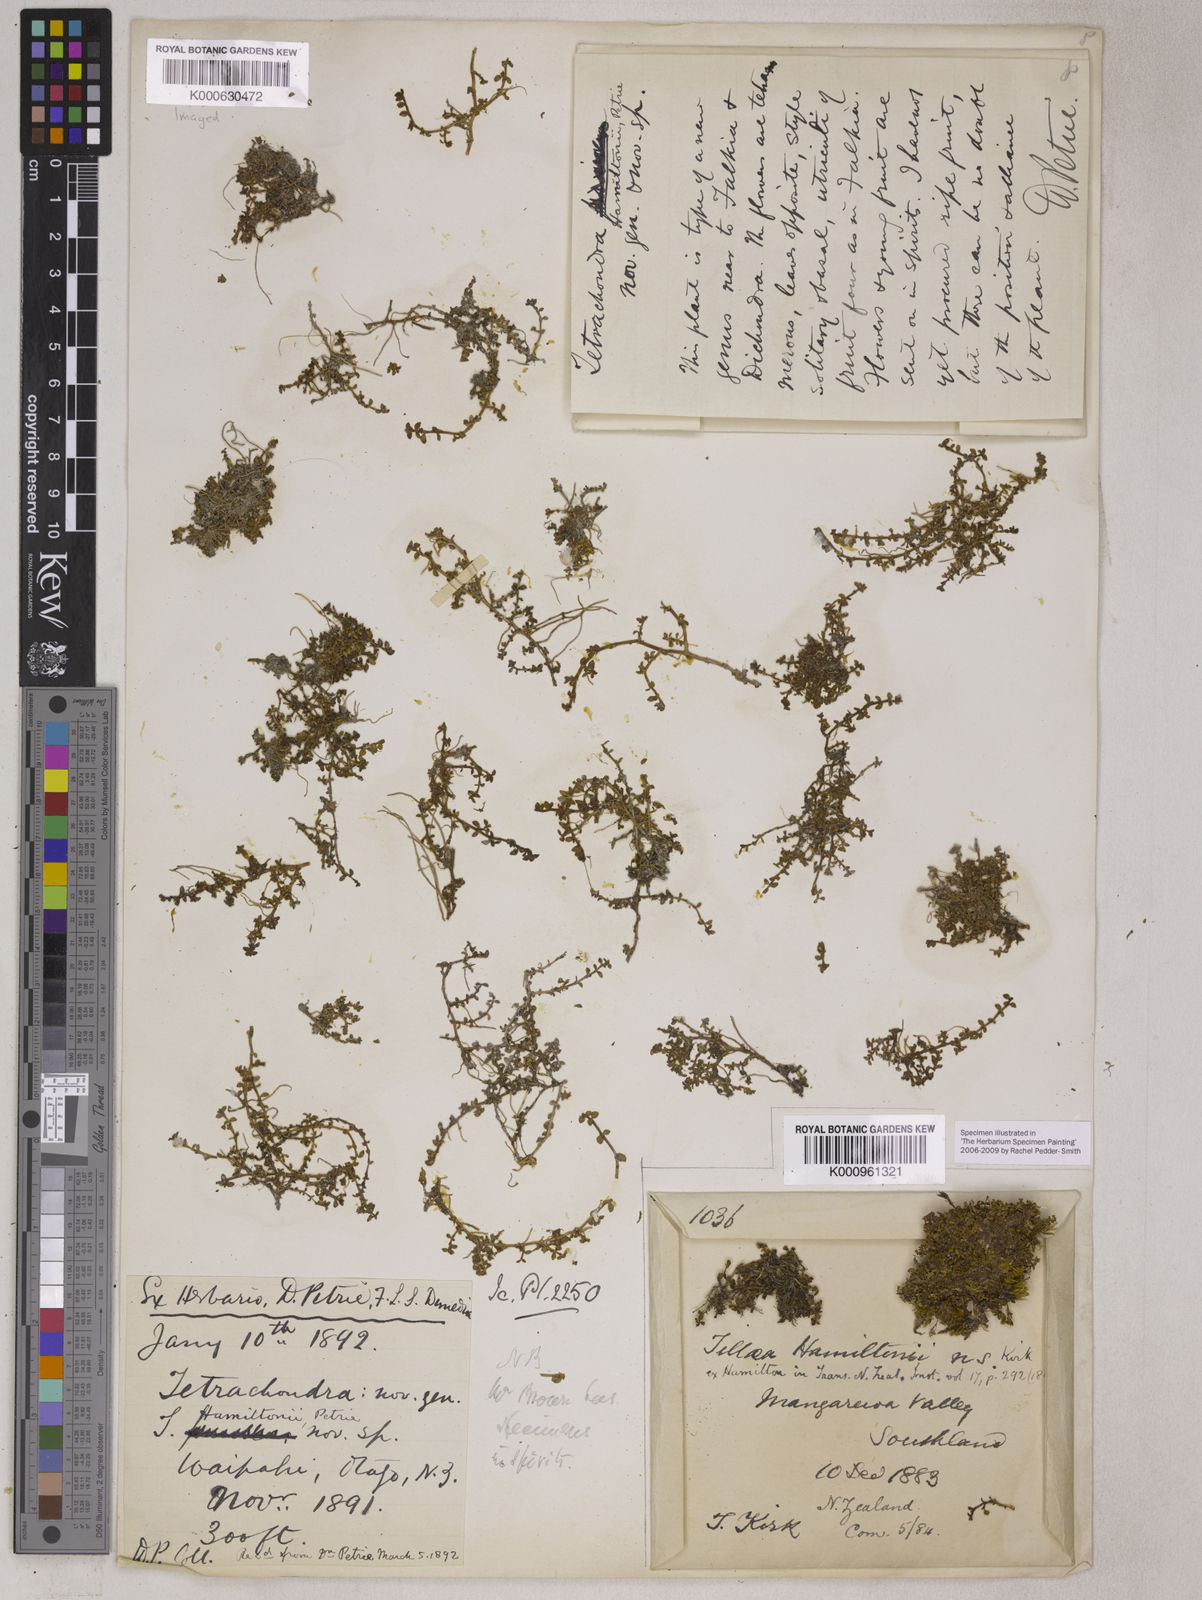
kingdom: Plantae
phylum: Tracheophyta
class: Magnoliopsida
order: Lamiales
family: Tetrachondraceae
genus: Tetrachondra
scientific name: Tetrachondra hamiltonii
